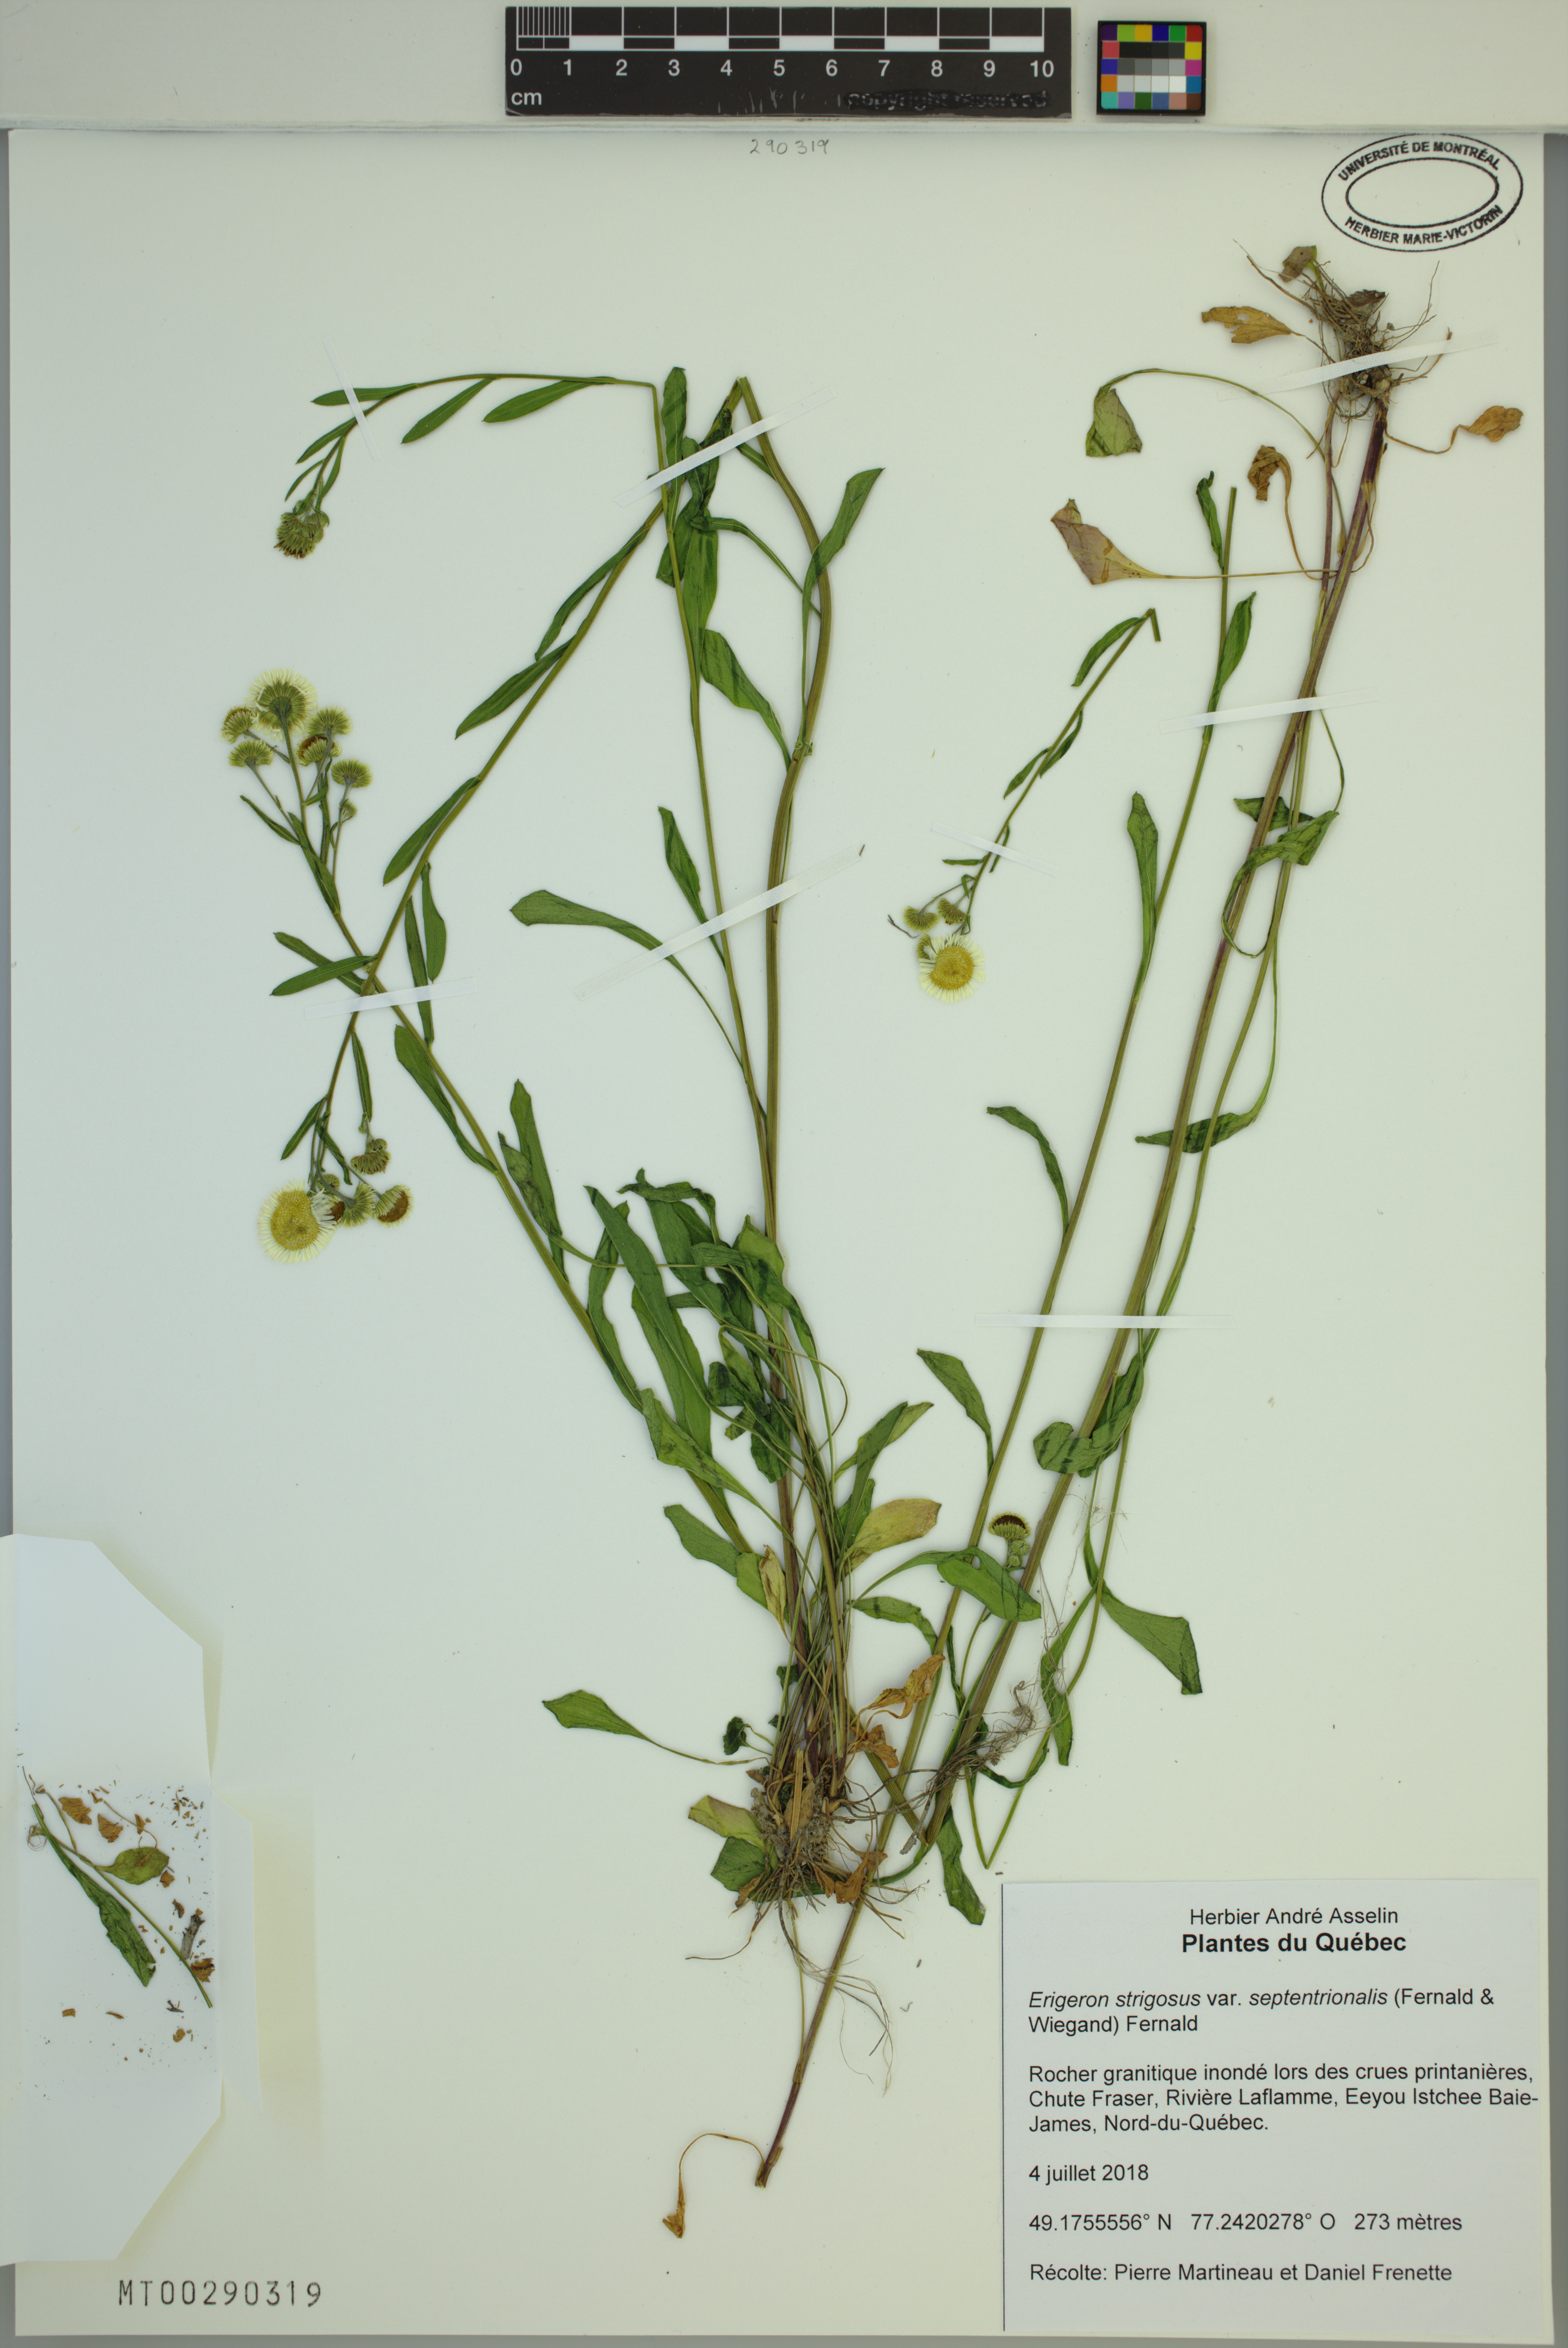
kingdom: Plantae
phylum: Tracheophyta
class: Magnoliopsida
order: Asterales
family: Asteraceae
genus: Erigeron
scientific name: Erigeron annuus
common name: Tall fleabane
